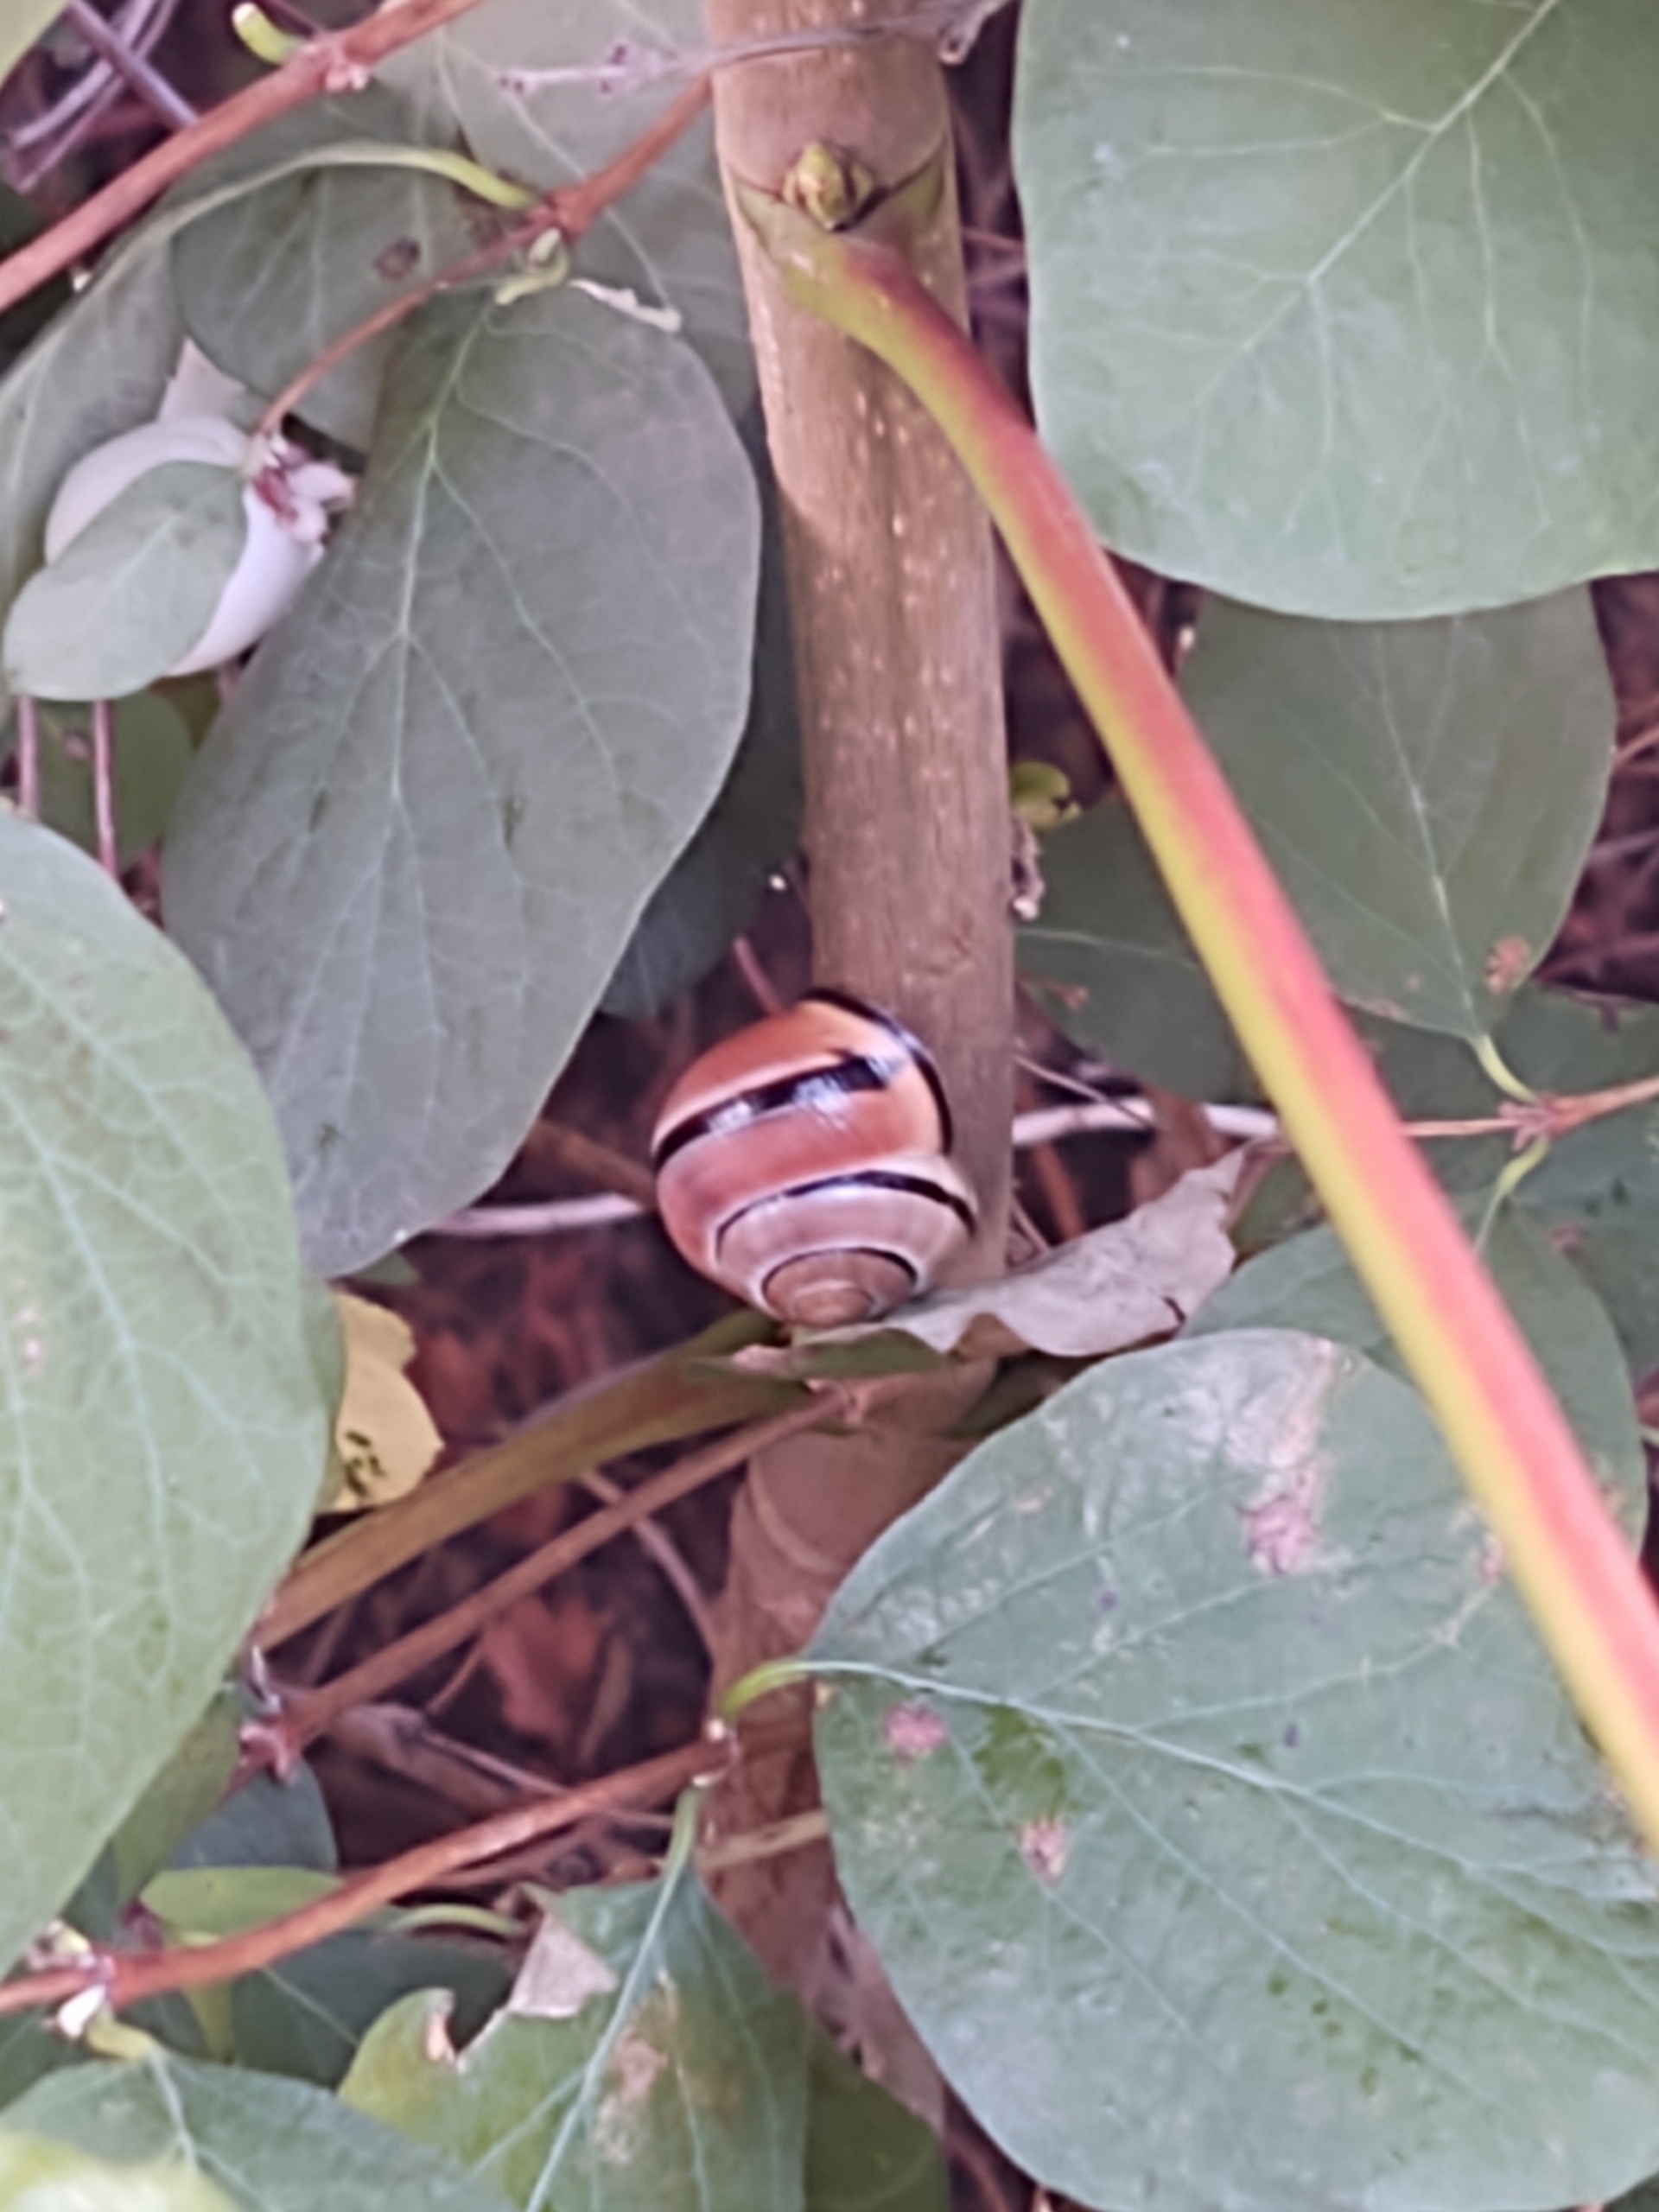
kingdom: Animalia
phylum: Mollusca
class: Gastropoda
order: Stylommatophora
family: Helicidae
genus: Cepaea
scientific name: Cepaea nemoralis
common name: Lundsnegl
